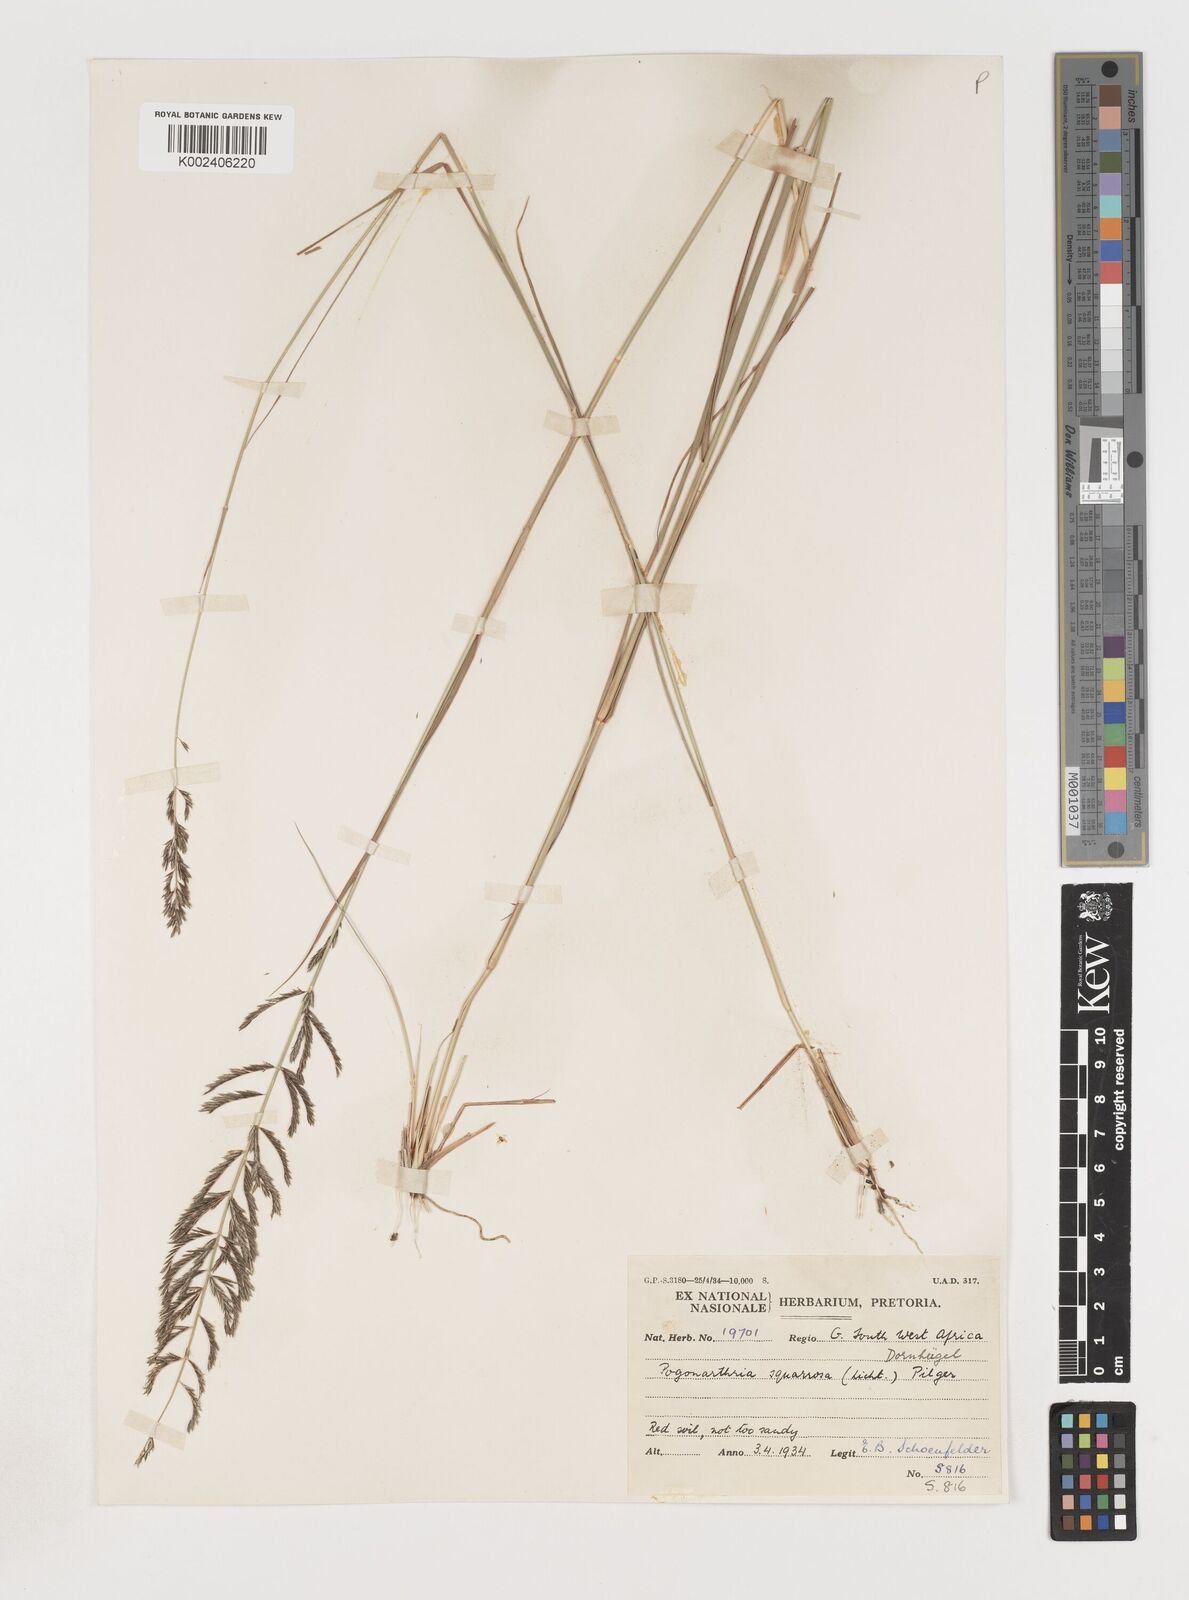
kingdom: Plantae
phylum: Tracheophyta
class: Liliopsida
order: Poales
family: Poaceae
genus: Pogonarthria
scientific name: Pogonarthria squarrosa
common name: Grass
